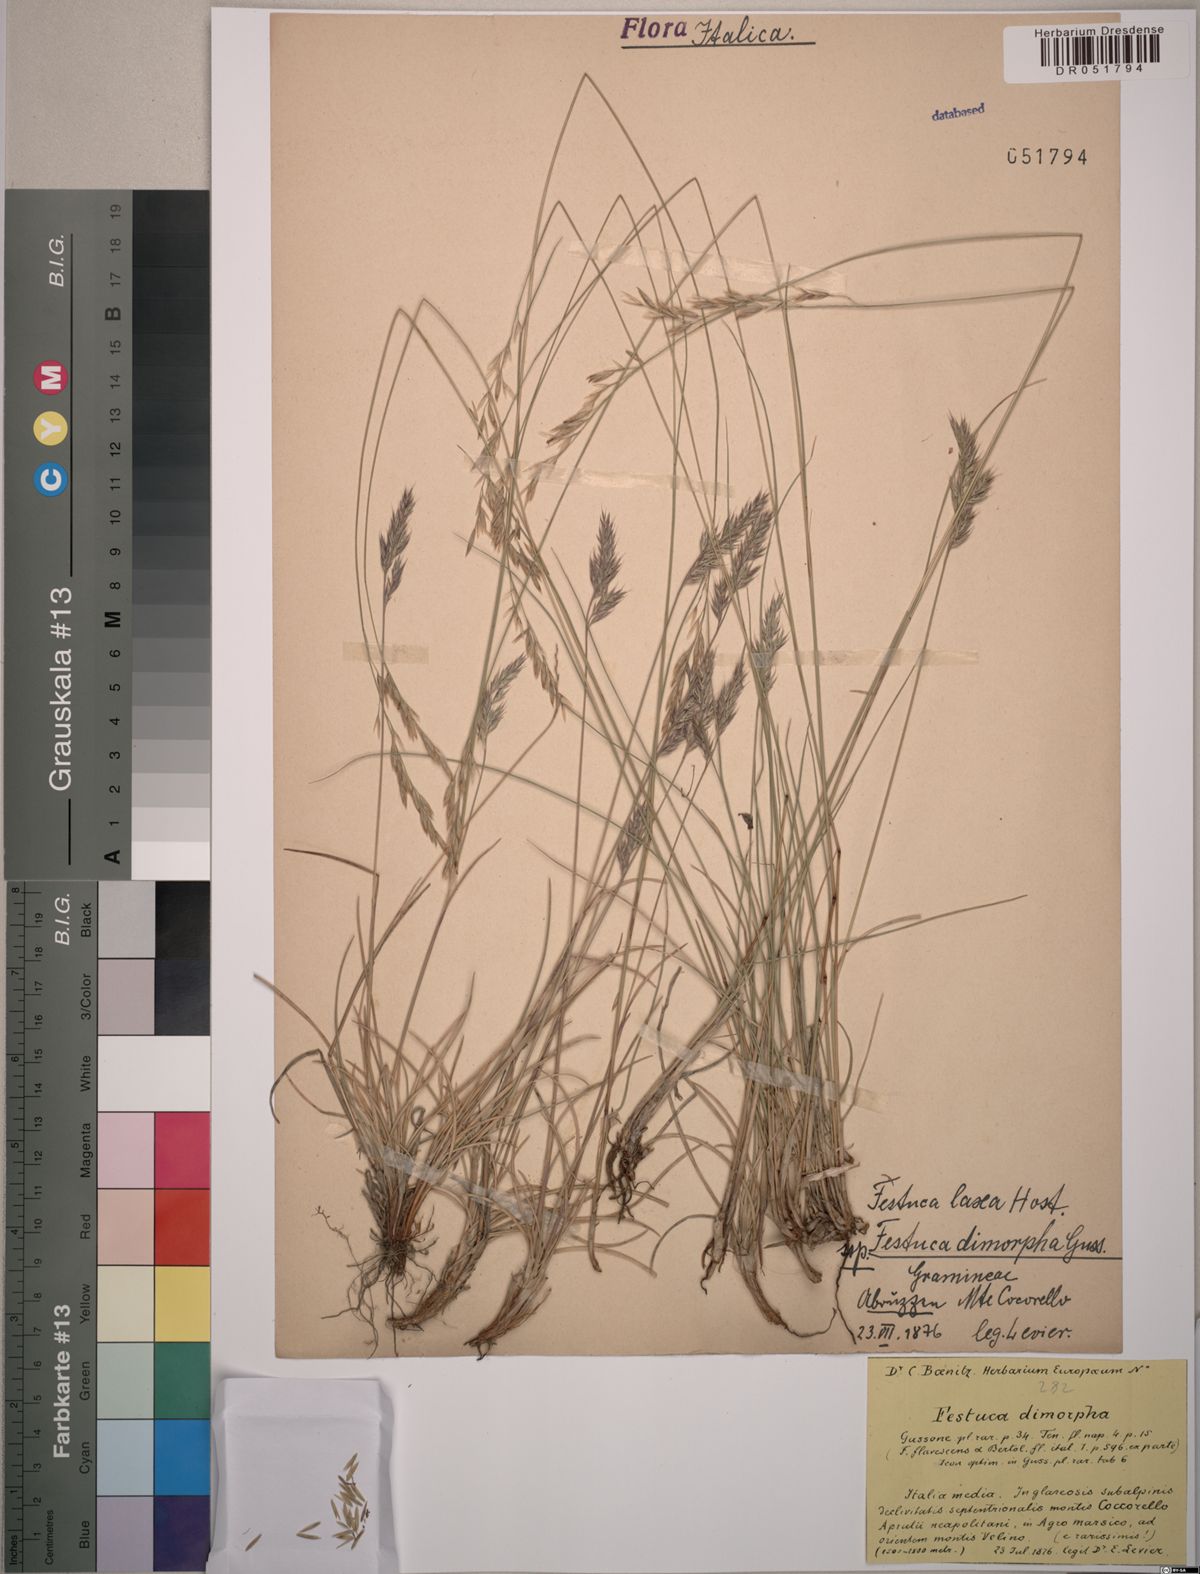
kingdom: Plantae
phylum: Tracheophyta
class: Liliopsida
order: Poales
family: Poaceae
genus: Festuca
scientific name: Festuca dimorpha
